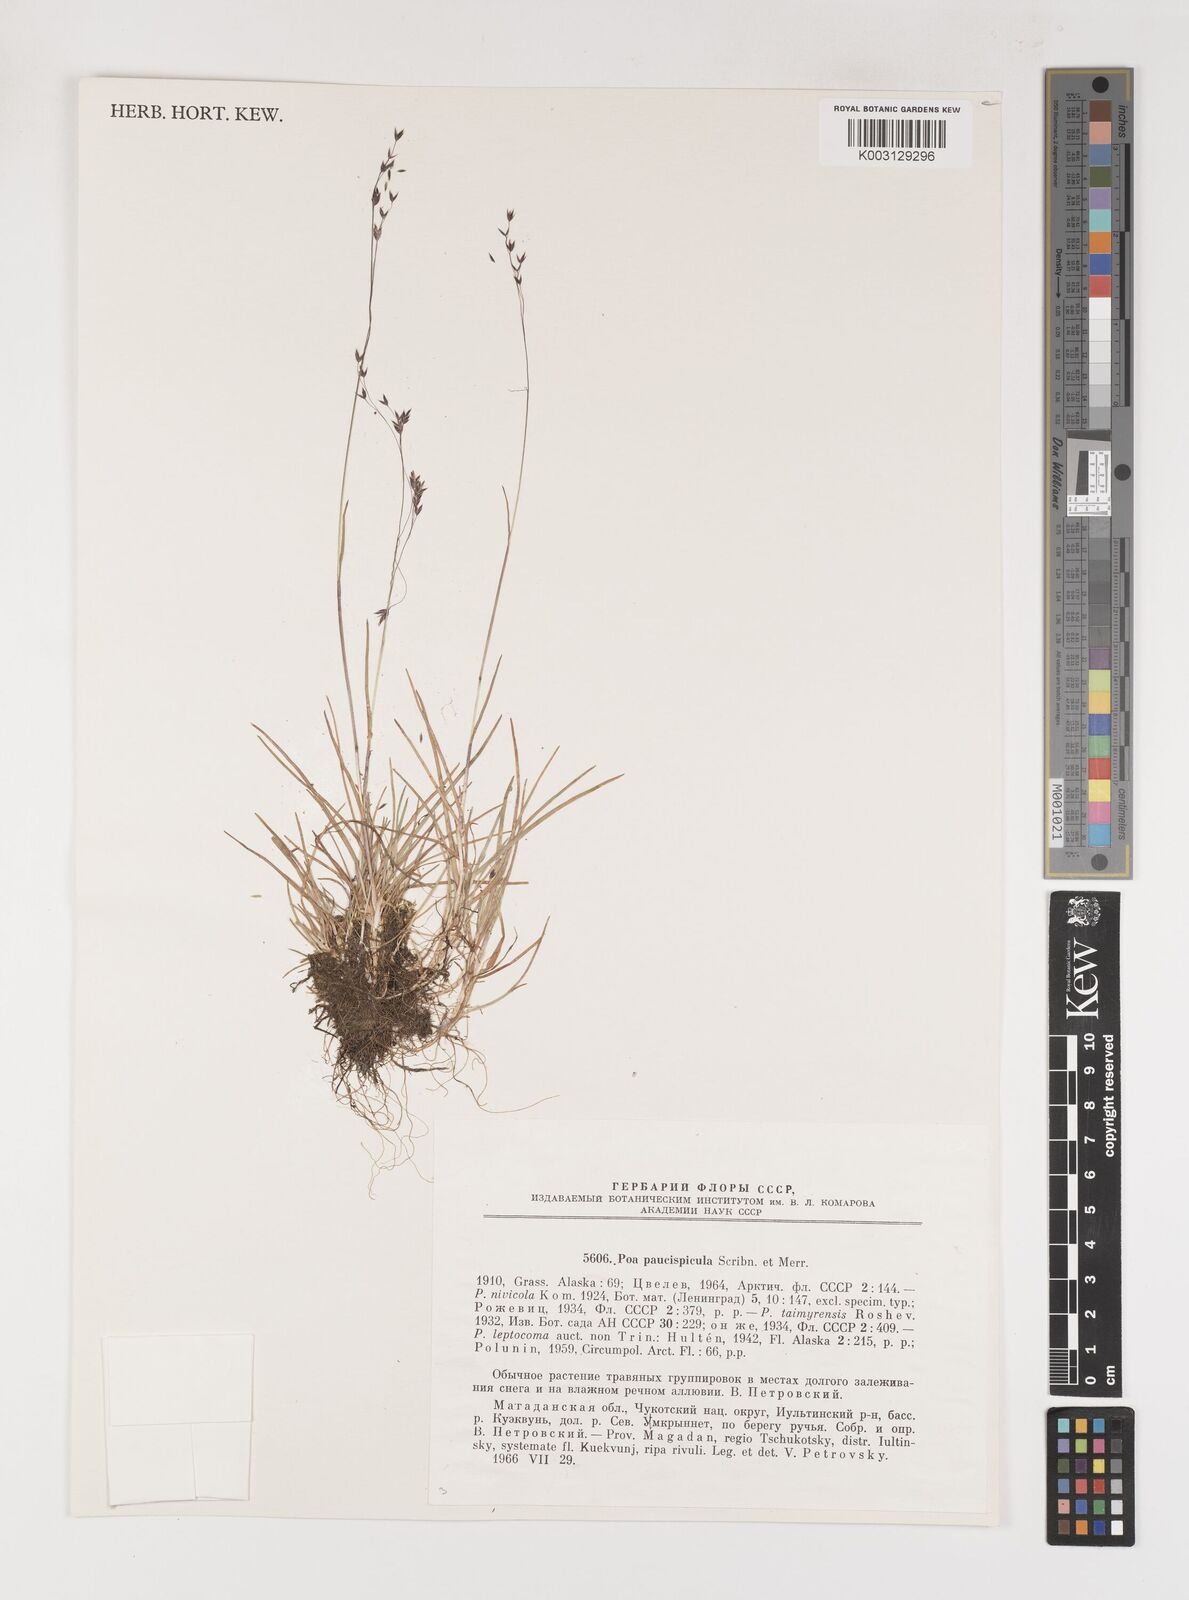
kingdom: Plantae
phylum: Tracheophyta
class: Liliopsida
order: Poales
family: Poaceae
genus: Poa
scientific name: Poa paucispicula
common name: Alaska bluegrass
